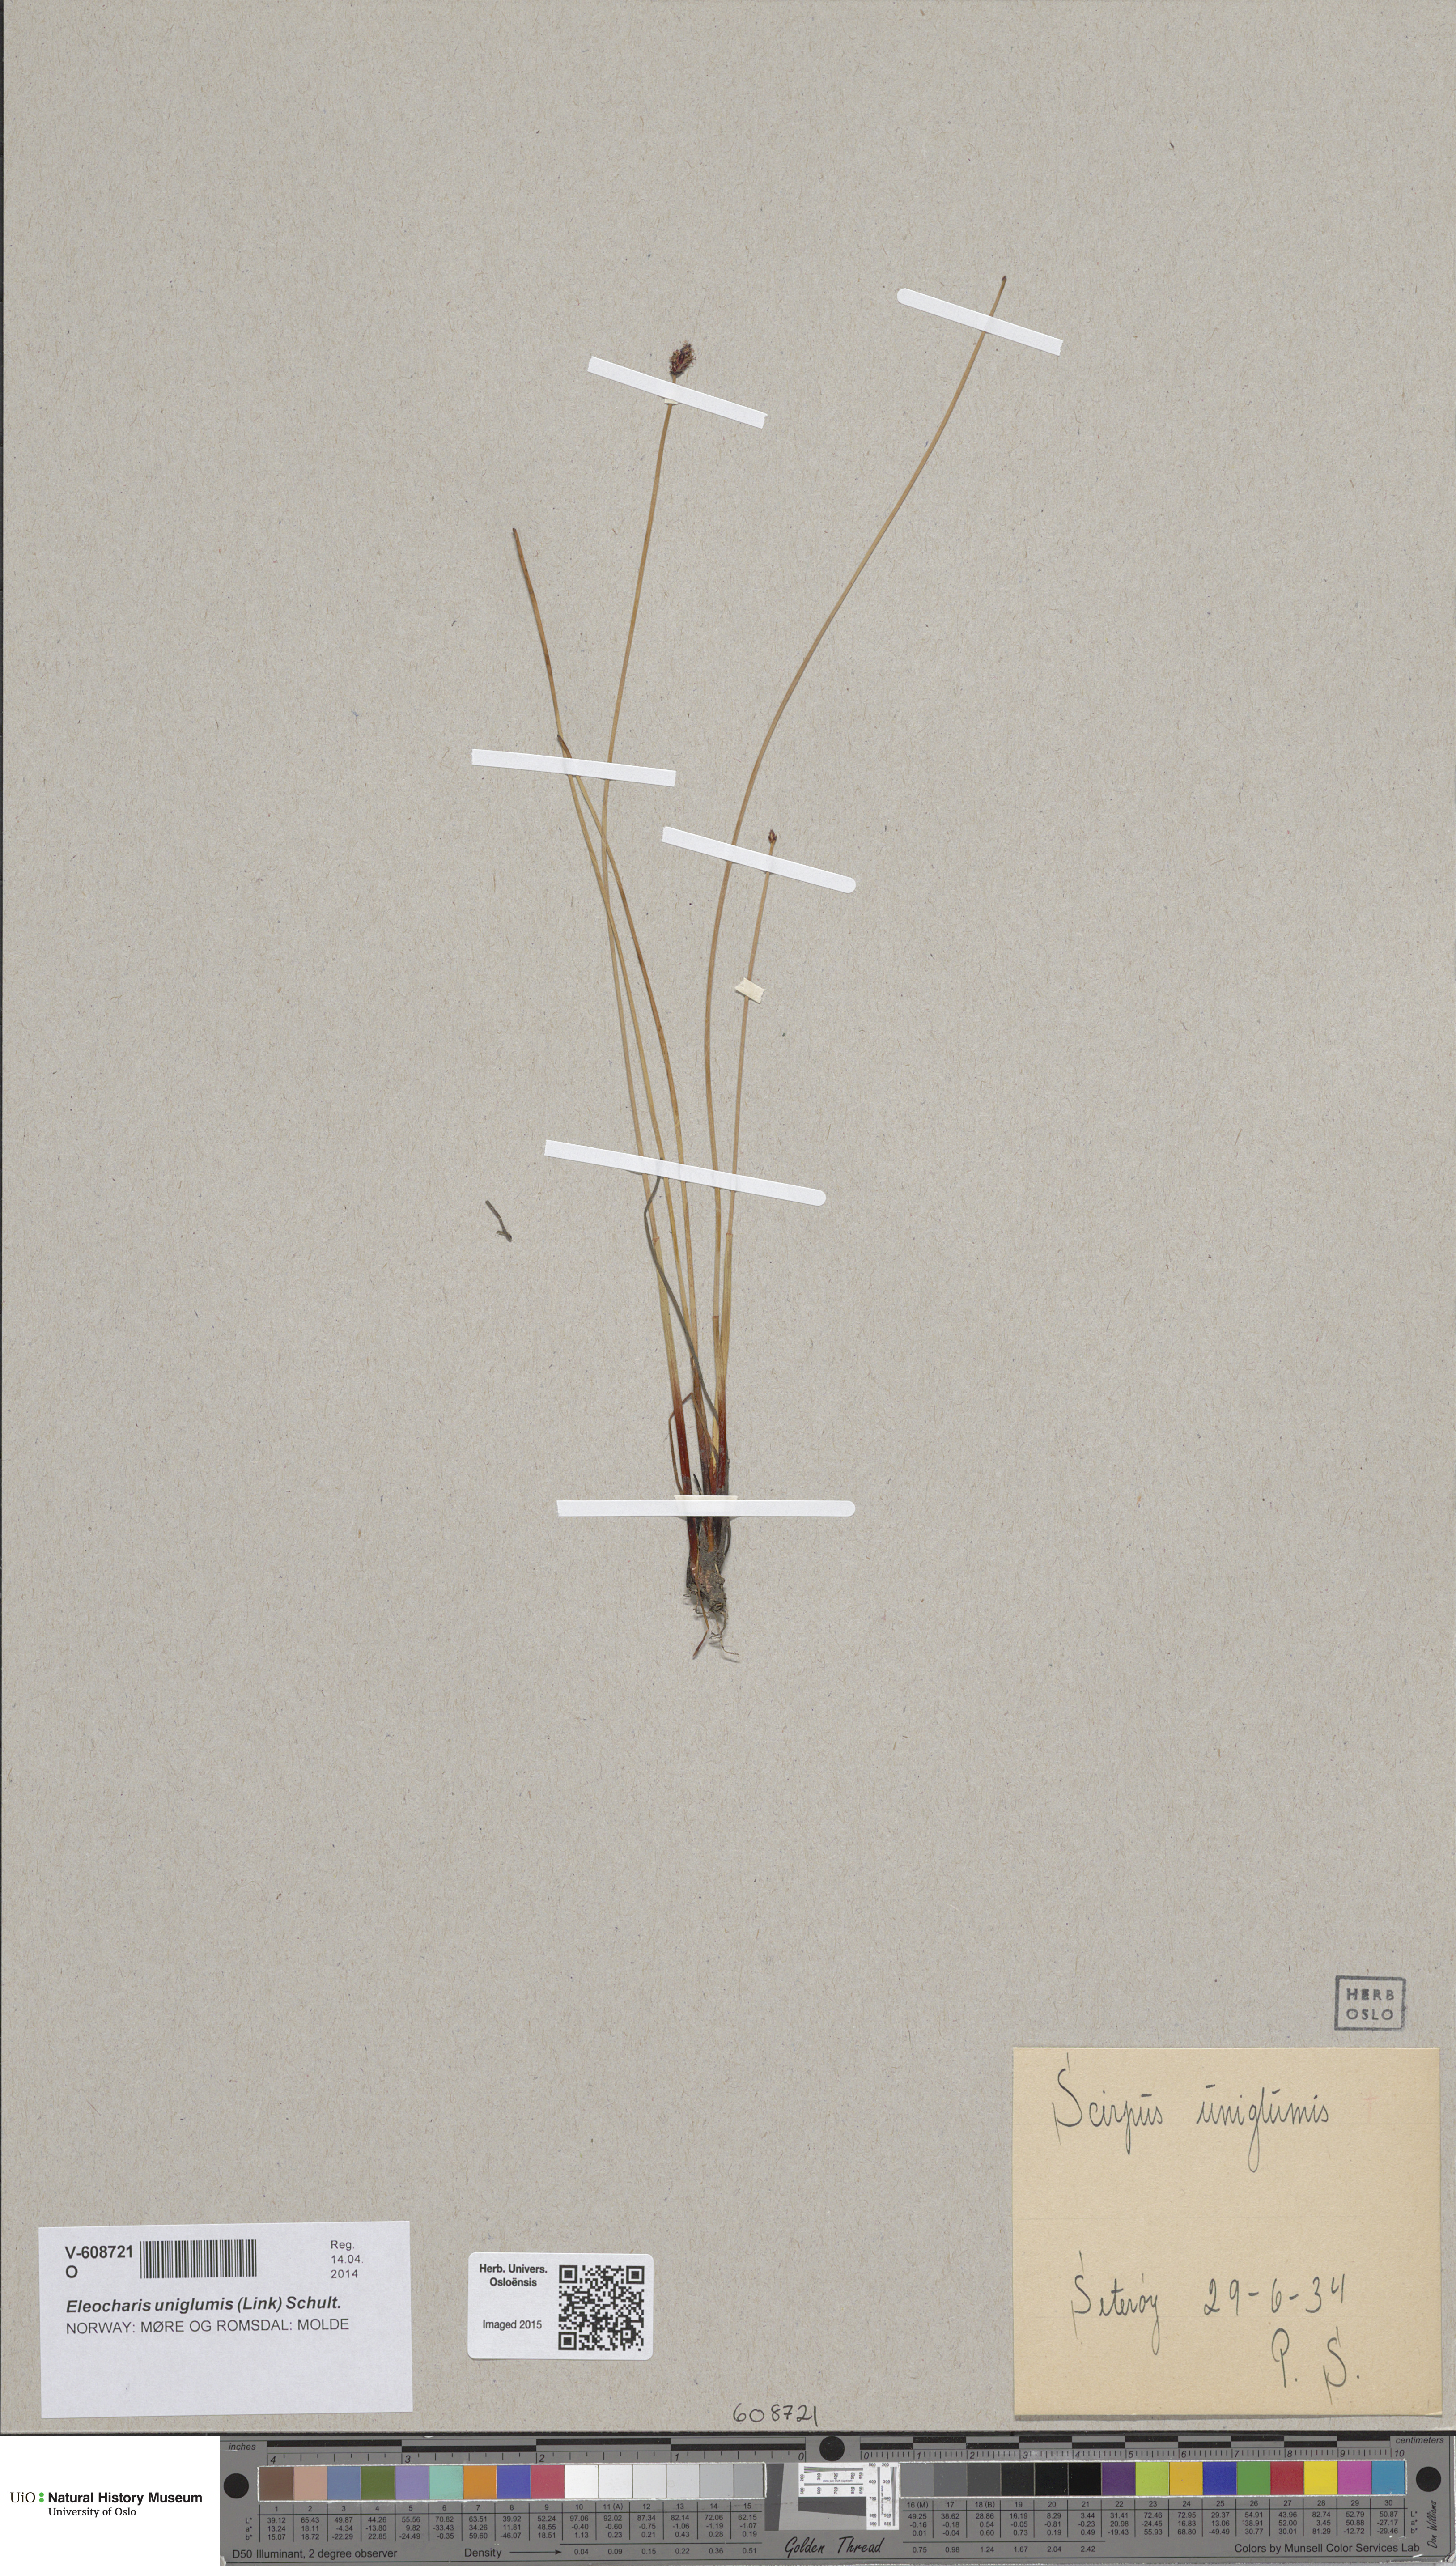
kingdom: Plantae
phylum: Tracheophyta
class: Liliopsida
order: Poales
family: Cyperaceae
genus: Eleocharis
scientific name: Eleocharis uniglumis
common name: Slender spike-rush
